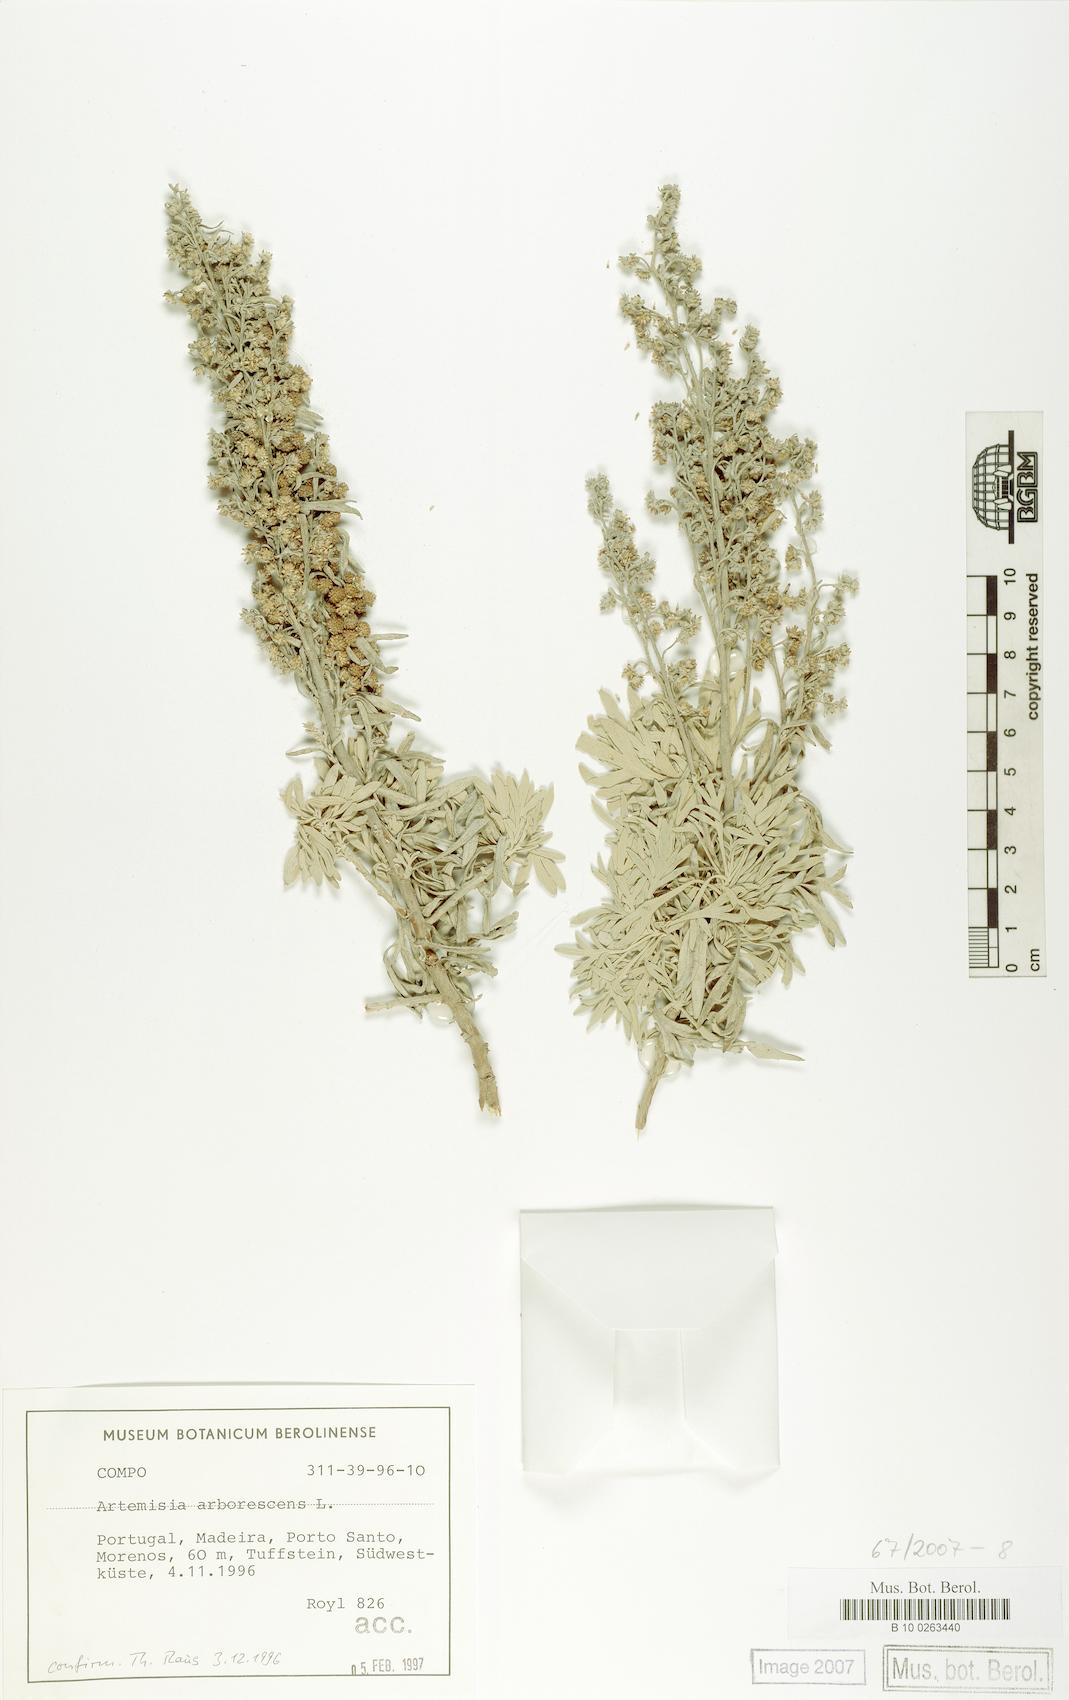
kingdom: Plantae
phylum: Tracheophyta
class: Magnoliopsida
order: Asterales
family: Asteraceae
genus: Artemisia
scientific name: Artemisia arborescens
